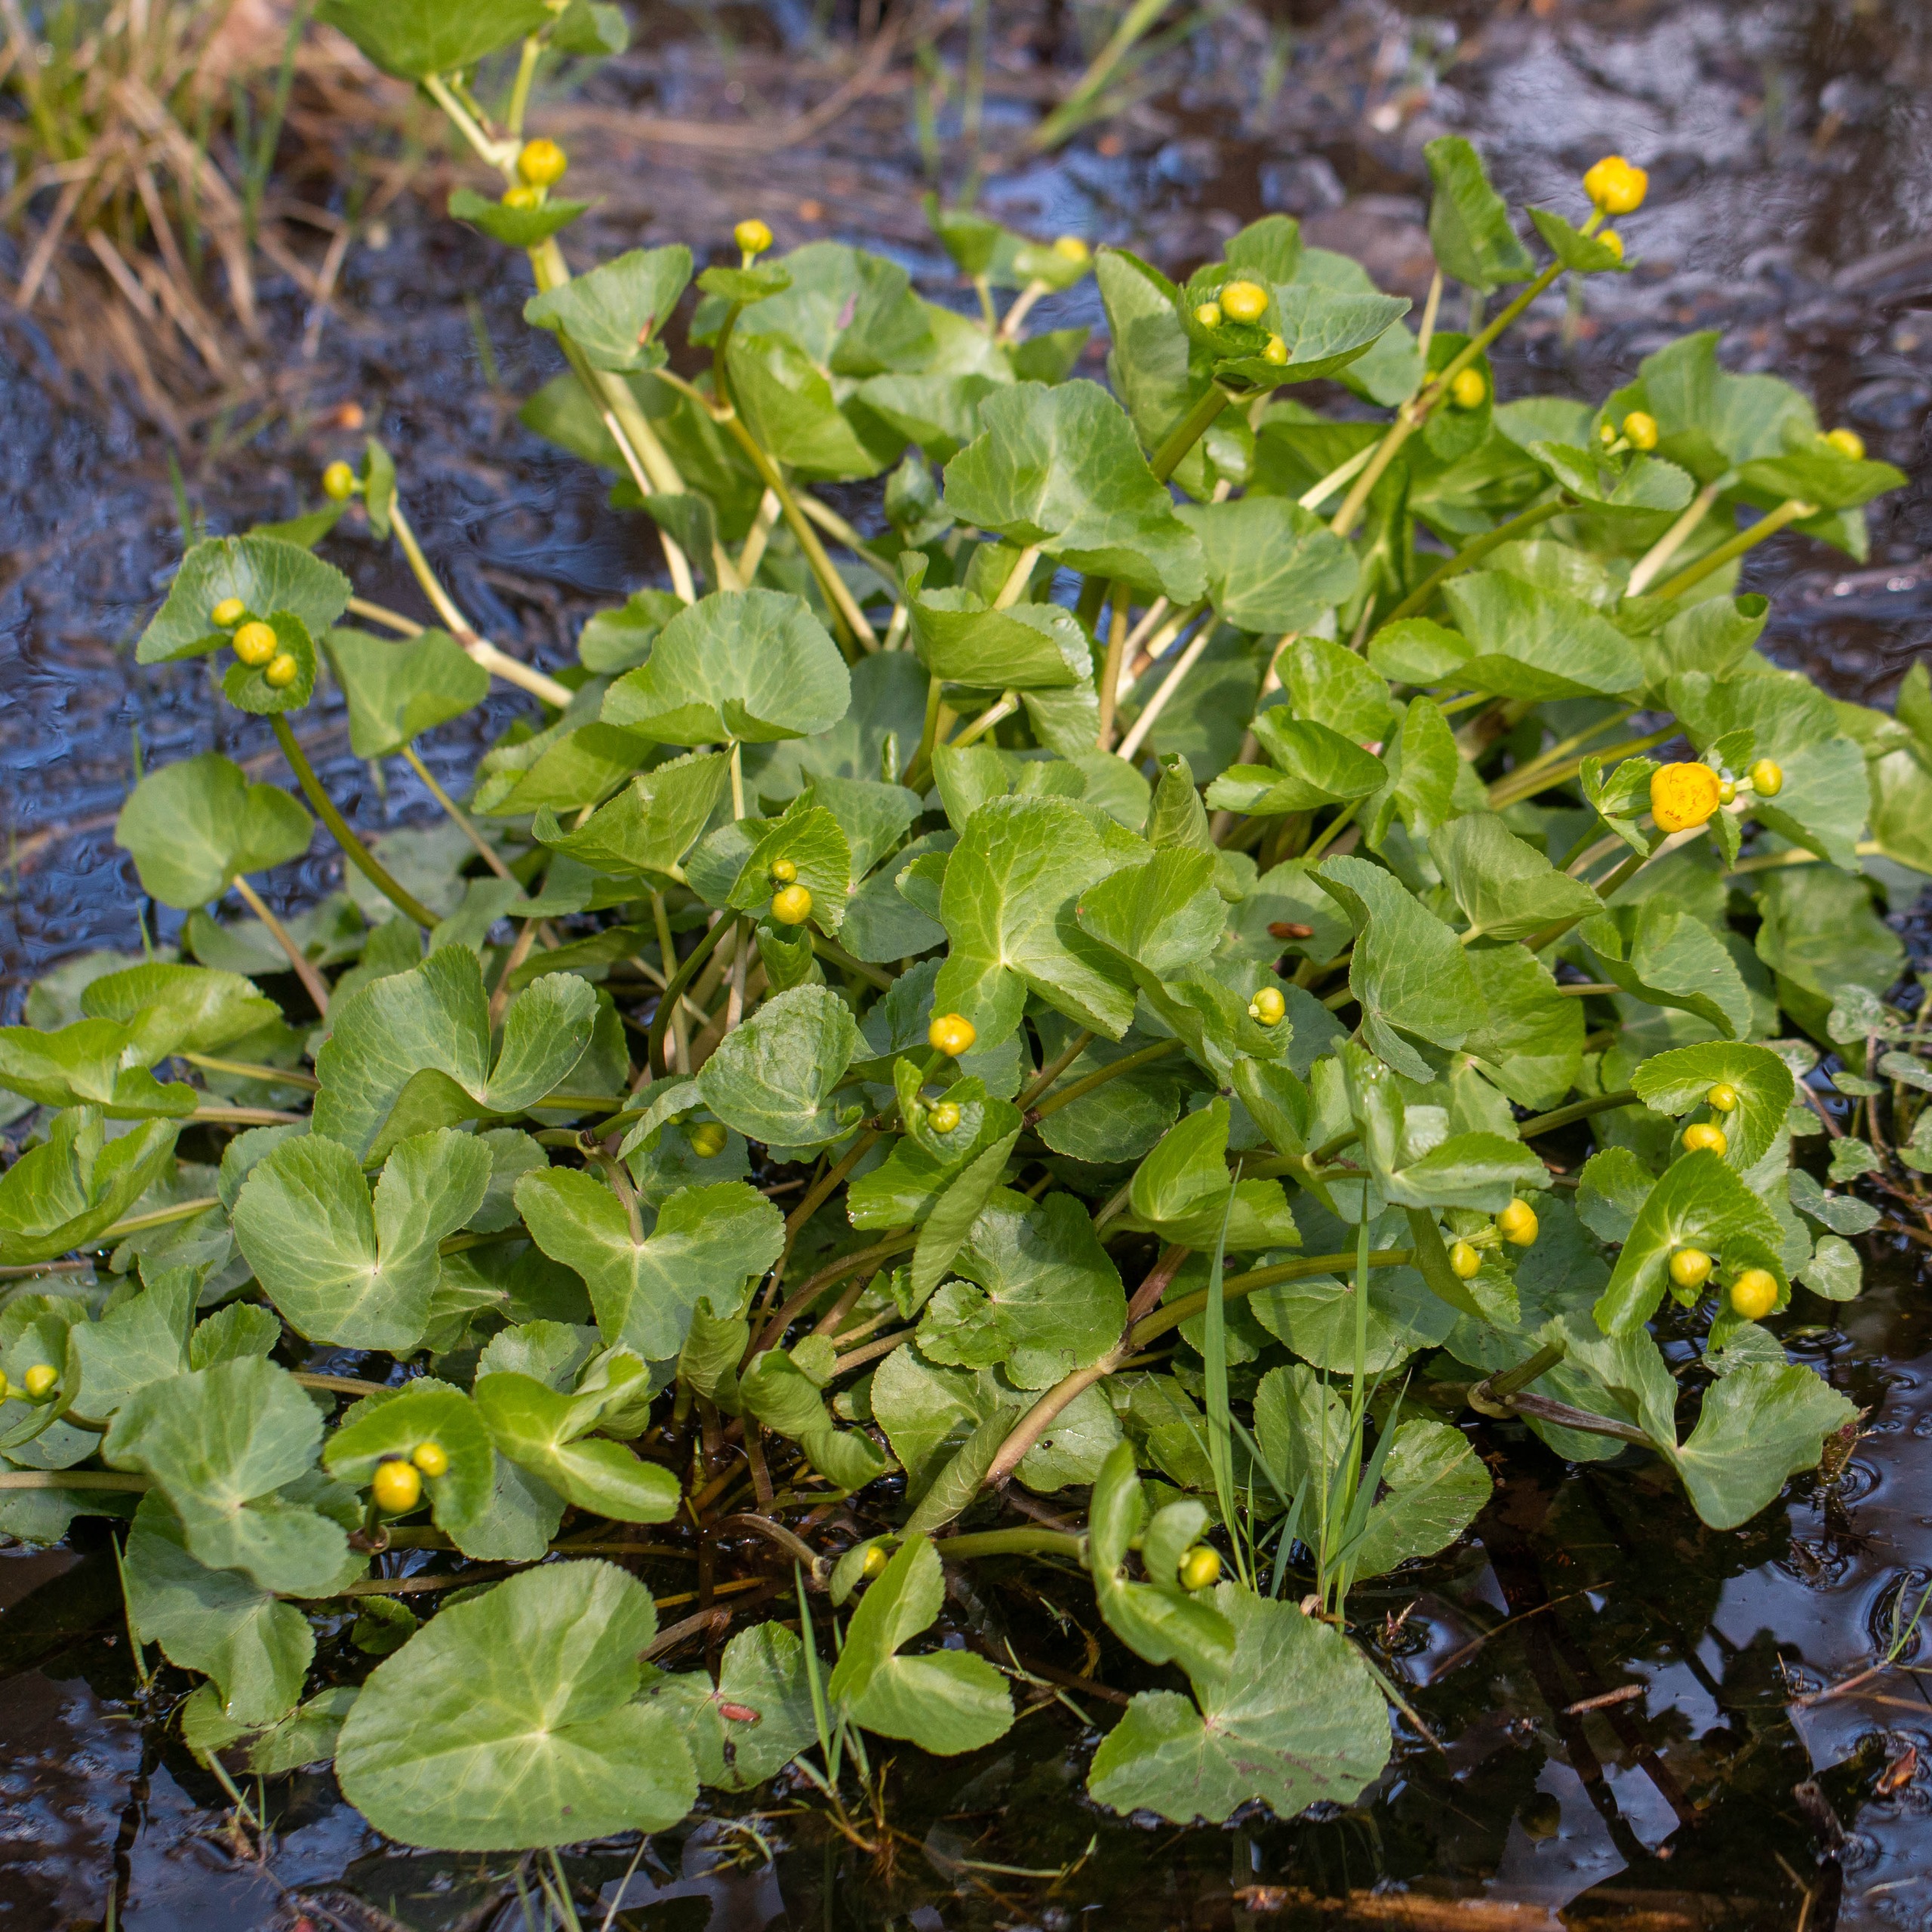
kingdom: Plantae
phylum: Tracheophyta
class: Magnoliopsida
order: Ranunculales
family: Ranunculaceae
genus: Caltha
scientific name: Caltha palustris
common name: Eng-kabbeleje
